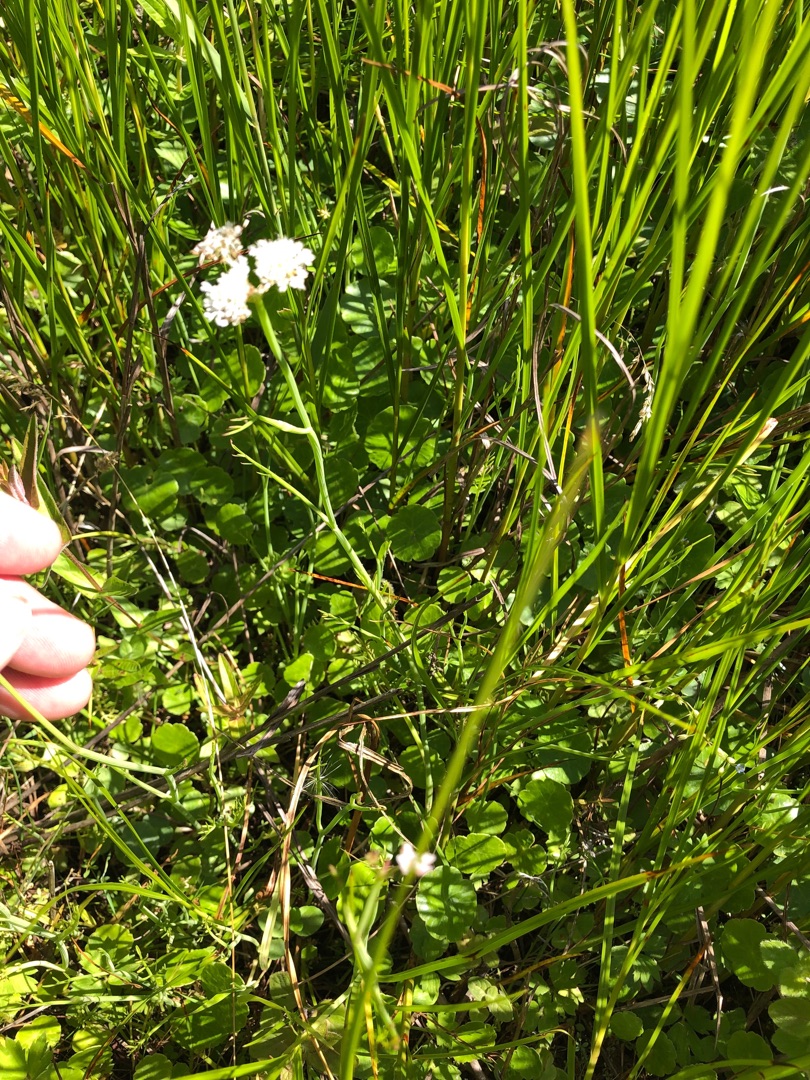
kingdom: Plantae
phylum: Tracheophyta
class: Magnoliopsida
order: Apiales
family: Apiaceae
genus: Oenanthe
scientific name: Oenanthe fistulosa
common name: Vand-klaseskærm
